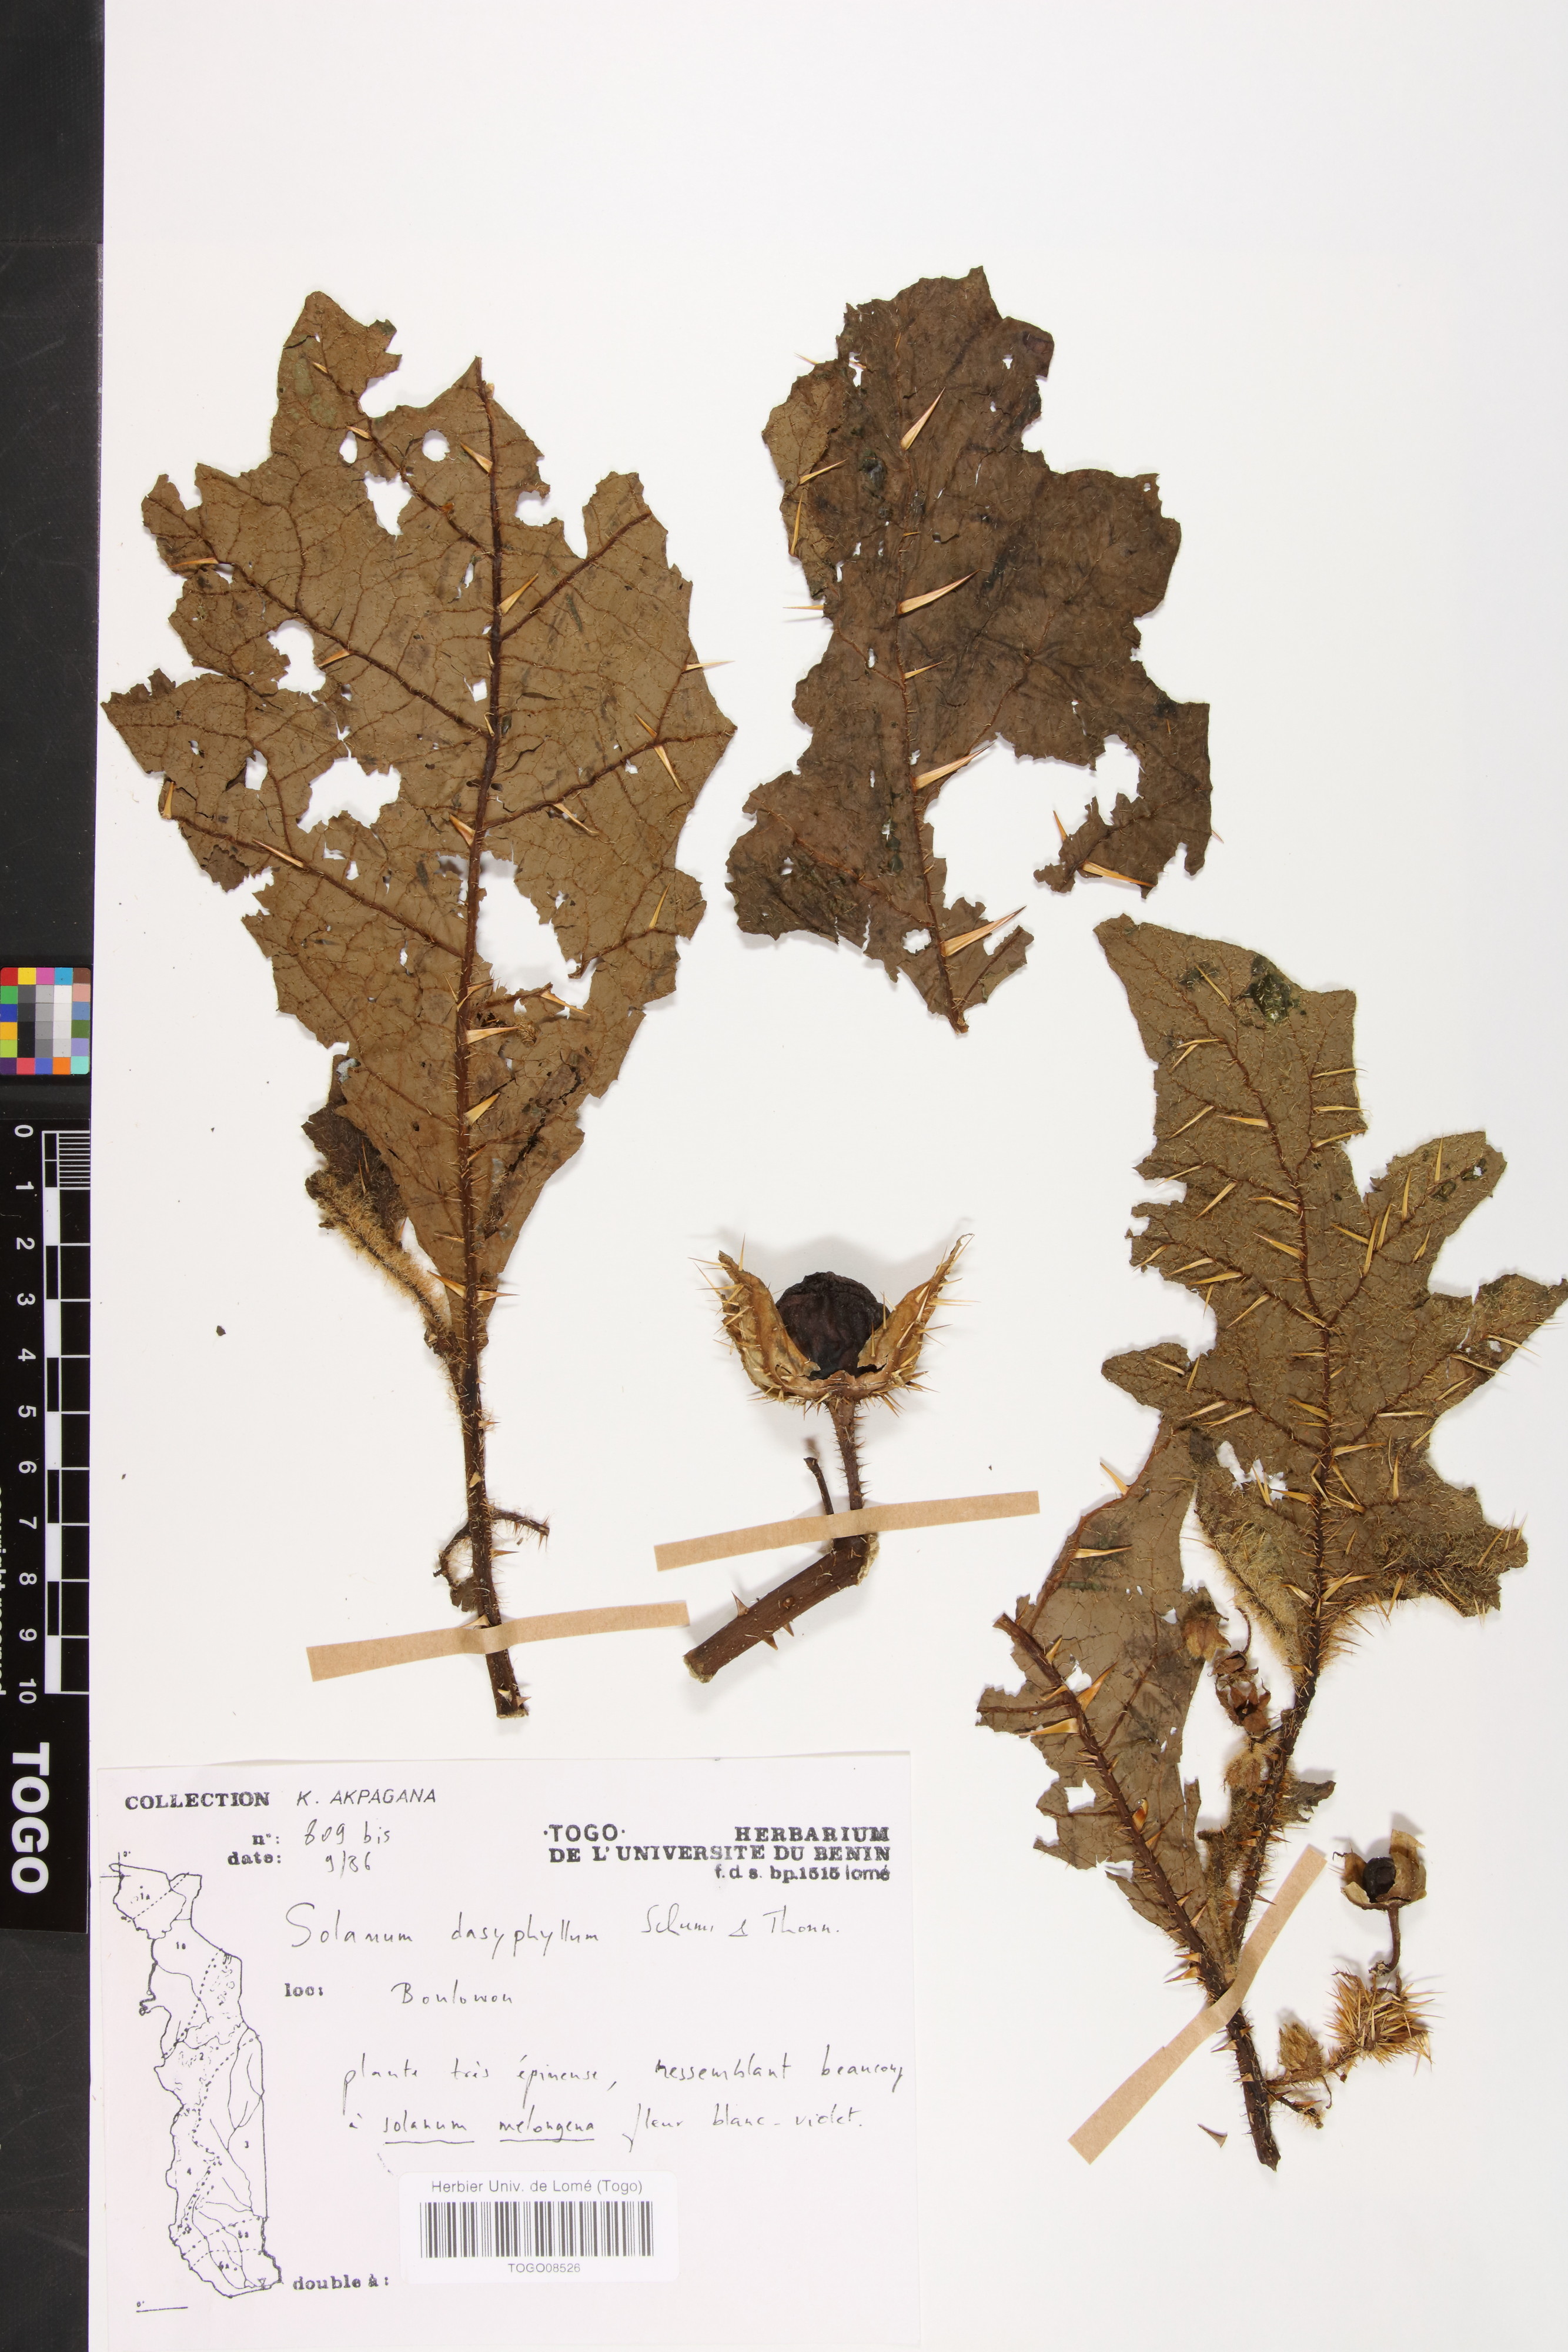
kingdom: Plantae
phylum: Tracheophyta
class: Magnoliopsida
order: Solanales
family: Solanaceae
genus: Solanum
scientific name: Solanum dasyphyllum
